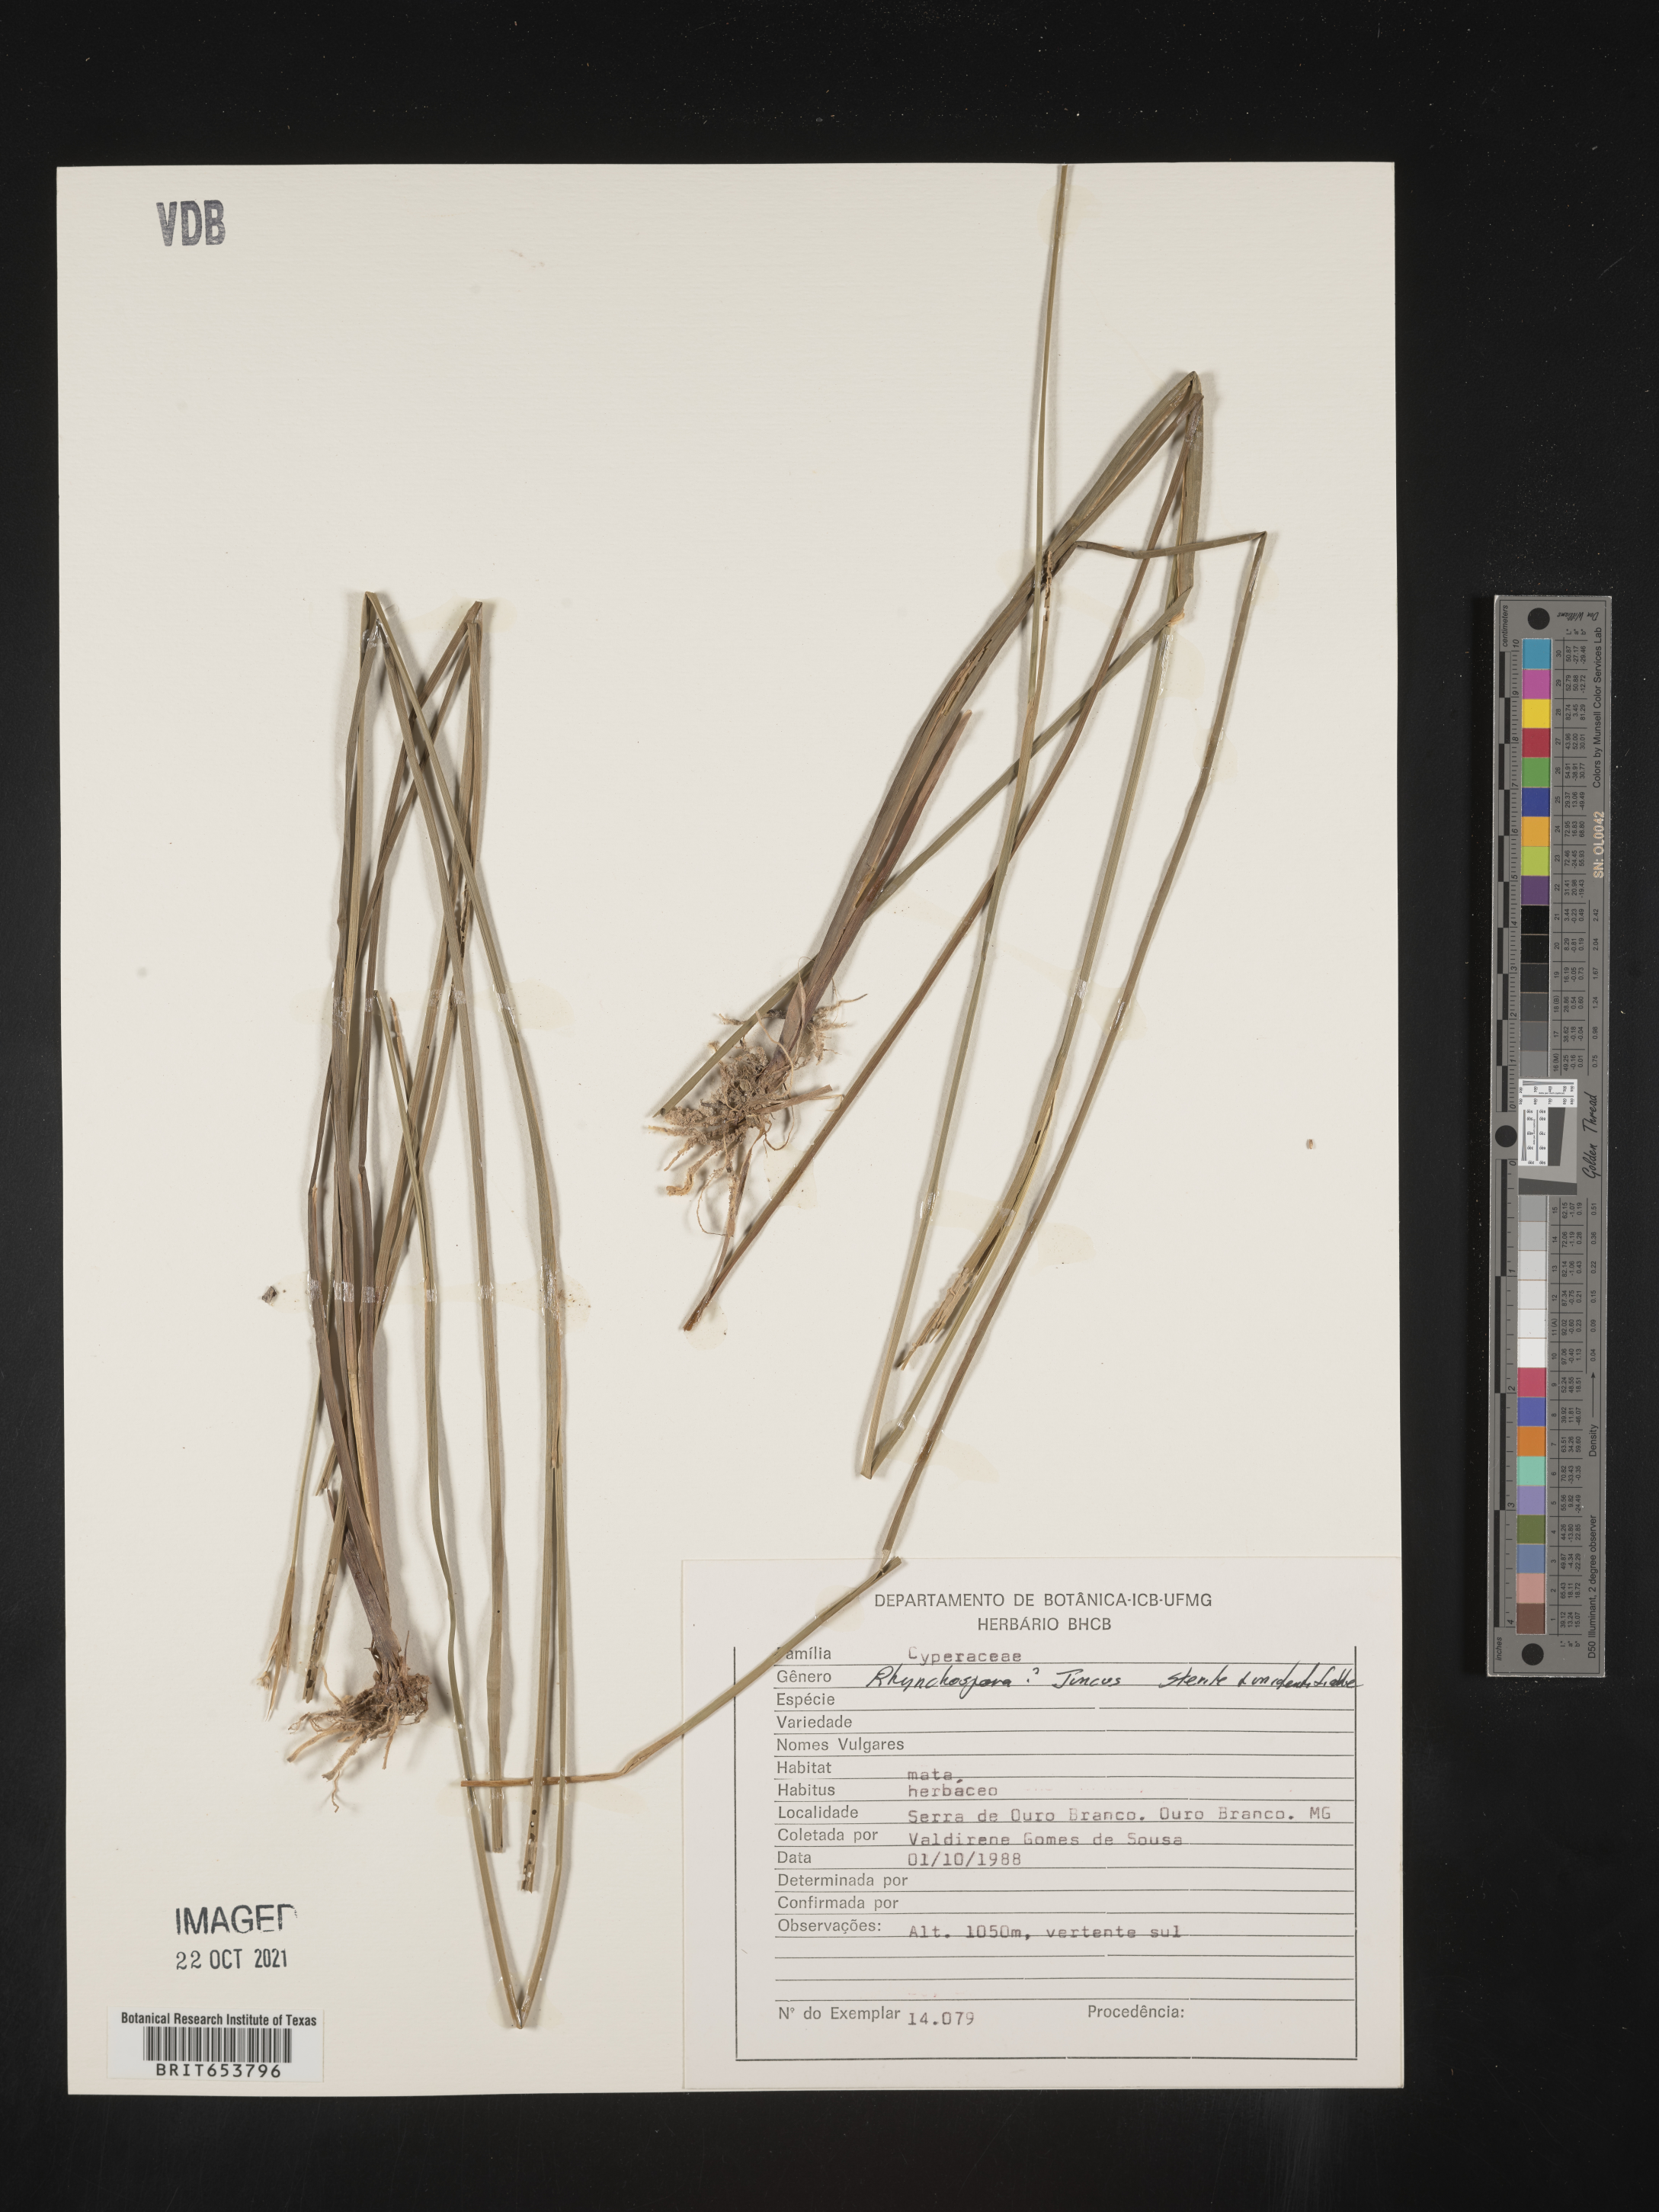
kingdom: Plantae
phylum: Tracheophyta
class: Liliopsida
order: Poales
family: Juncaceae
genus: Juncus
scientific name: Juncus
